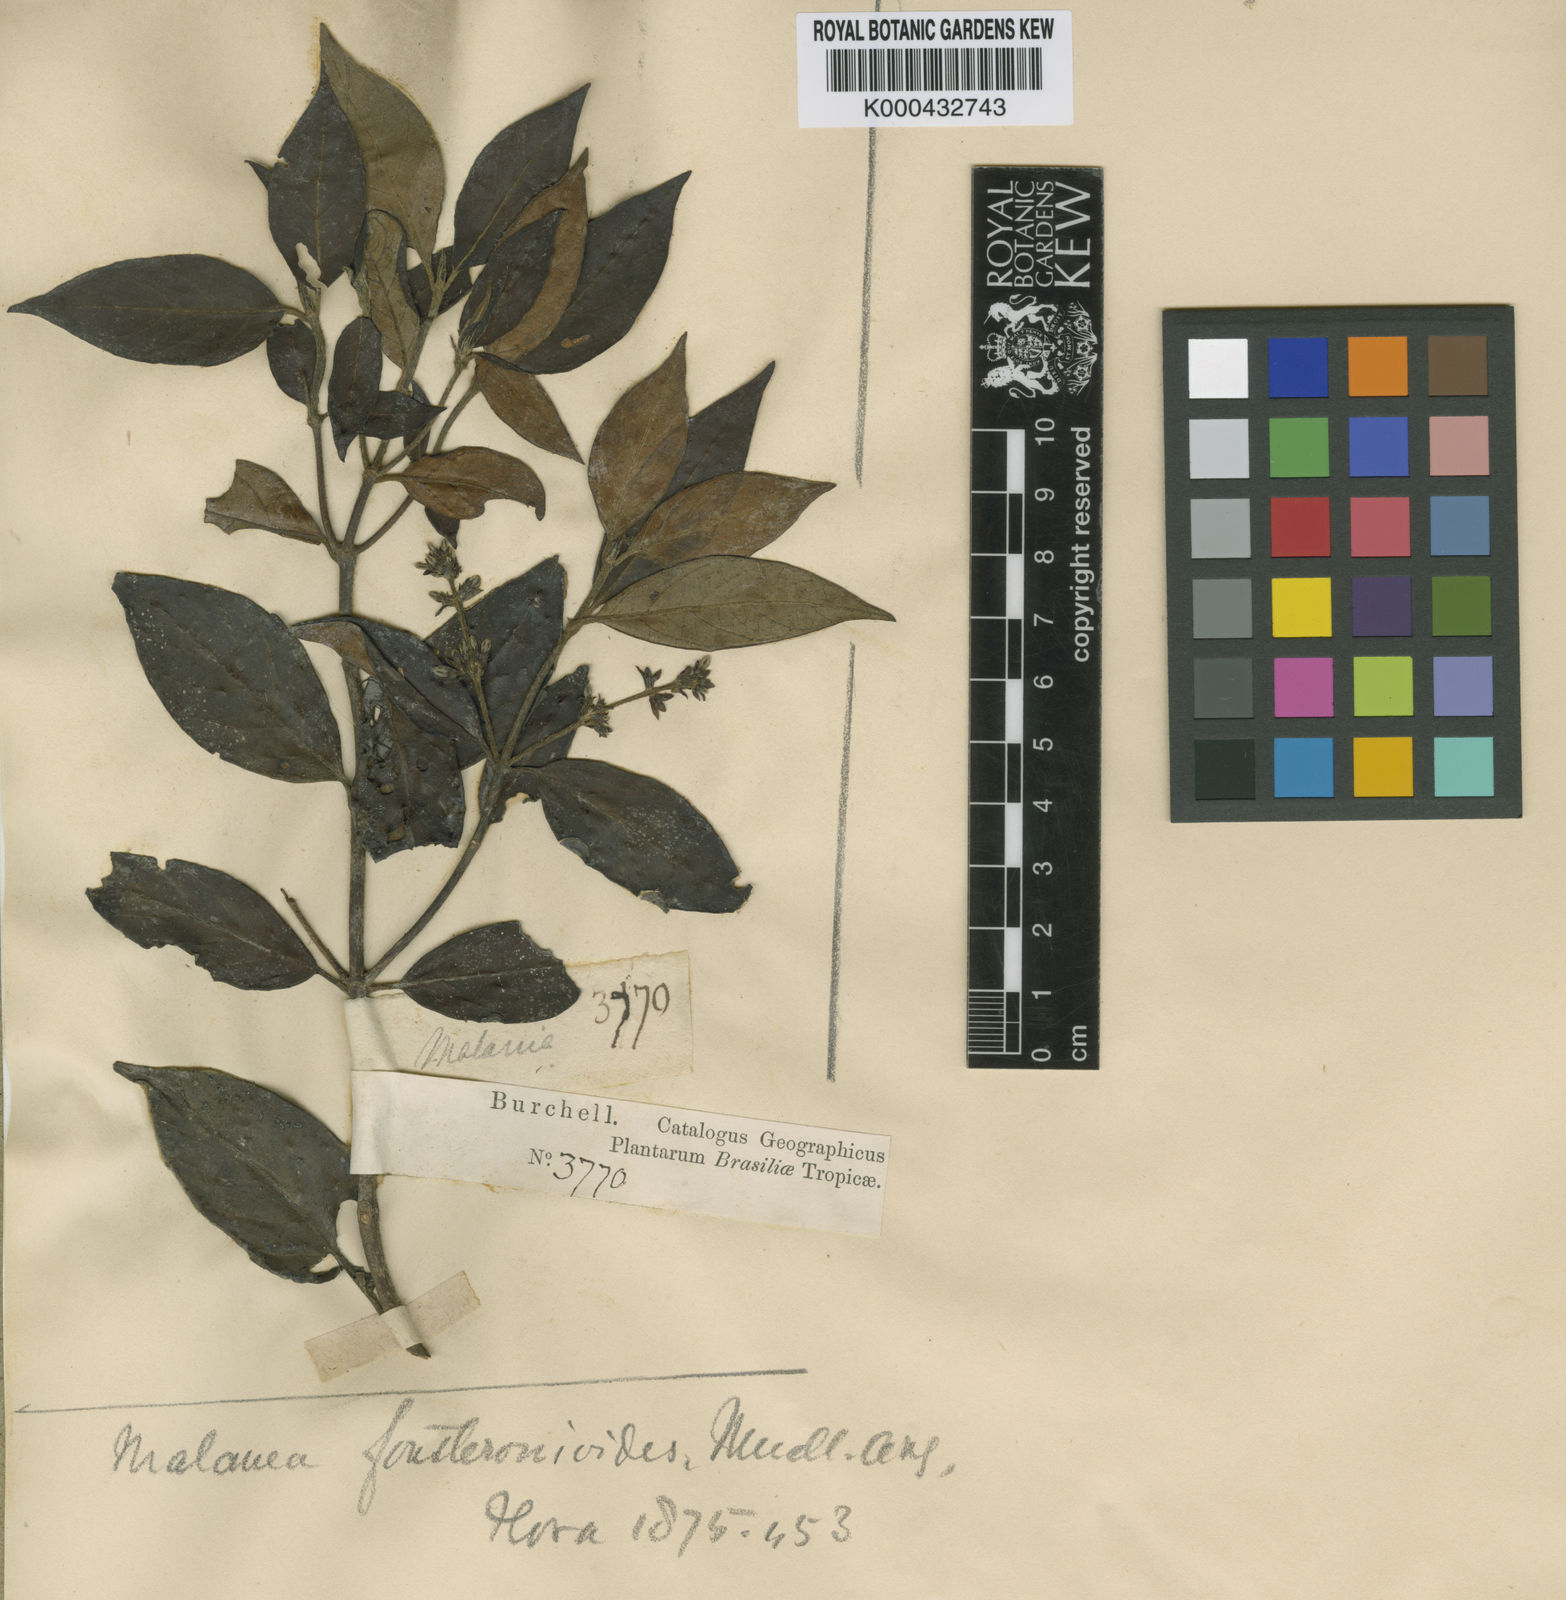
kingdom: Plantae
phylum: Tracheophyta
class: Magnoliopsida
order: Gentianales
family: Rubiaceae
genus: Malanea
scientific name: Malanea
